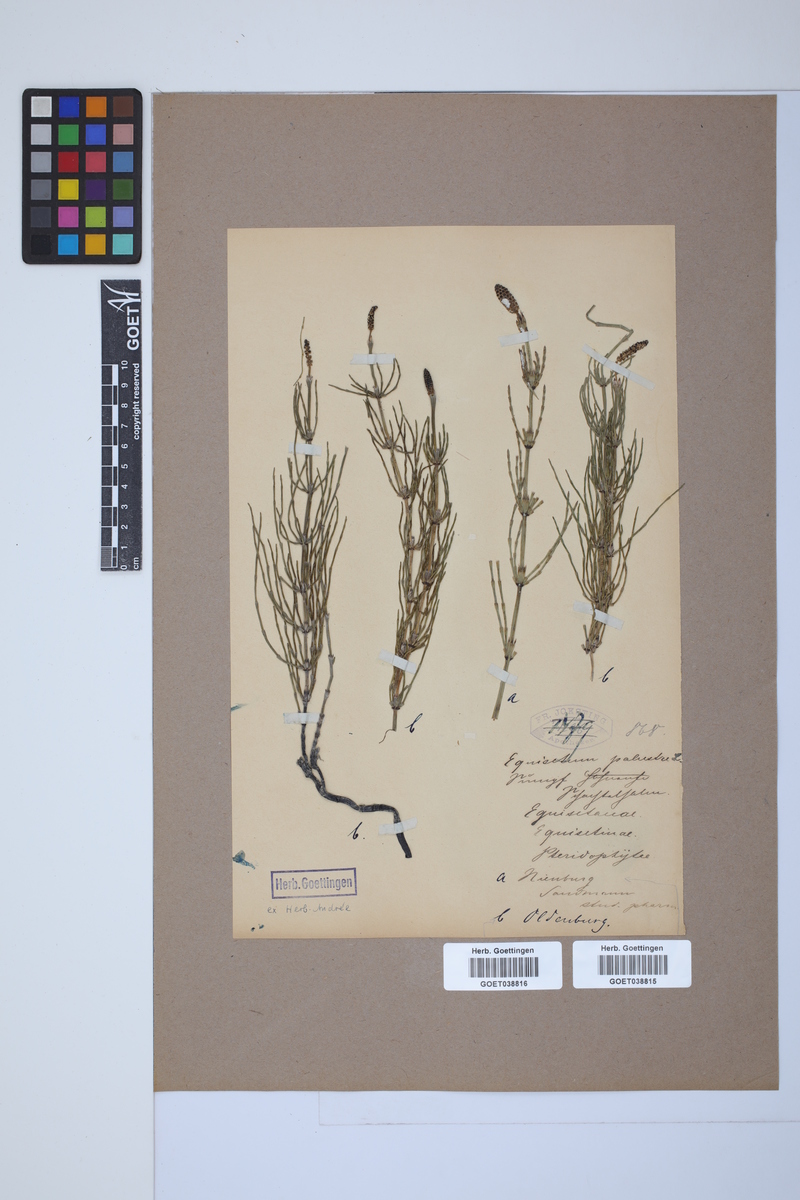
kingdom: Plantae
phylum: Tracheophyta
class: Polypodiopsida
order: Equisetales
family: Equisetaceae
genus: Equisetum
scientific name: Equisetum palustre
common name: Marsh horsetail
